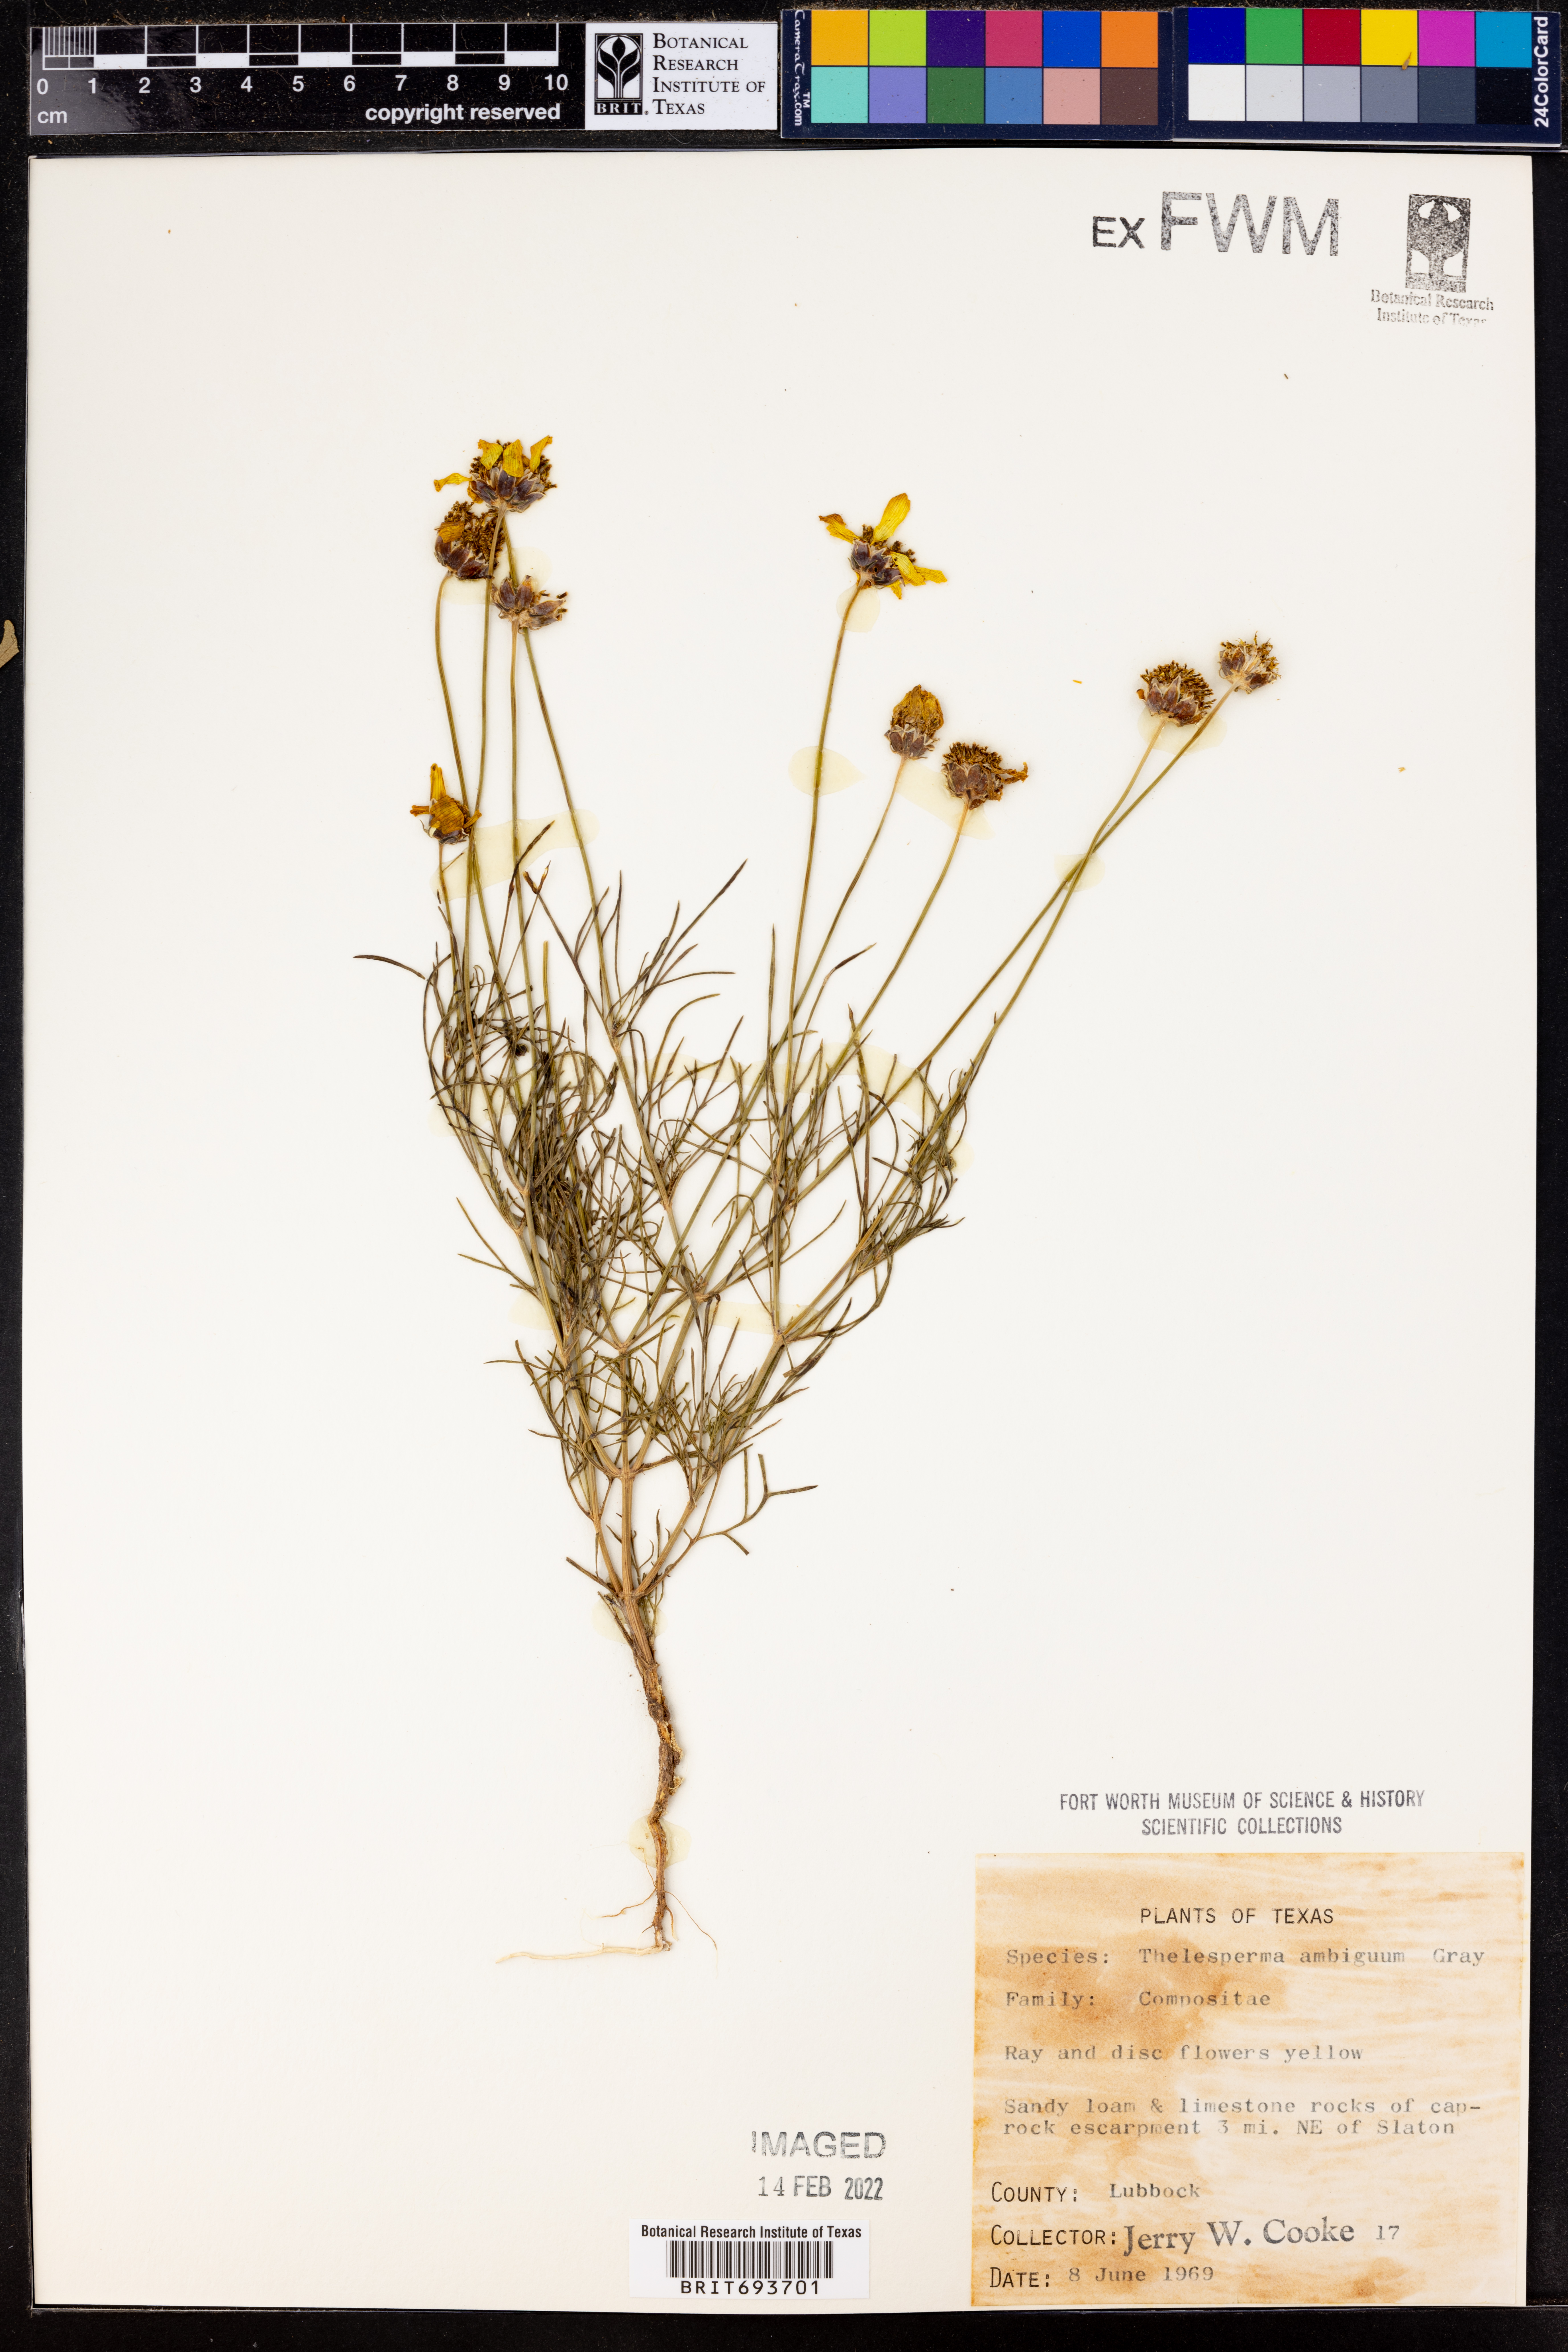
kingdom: Plantae
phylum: Tracheophyta
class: Magnoliopsida
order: Asterales
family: Asteraceae
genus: Thelesperma
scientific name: Thelesperma ambiguum
